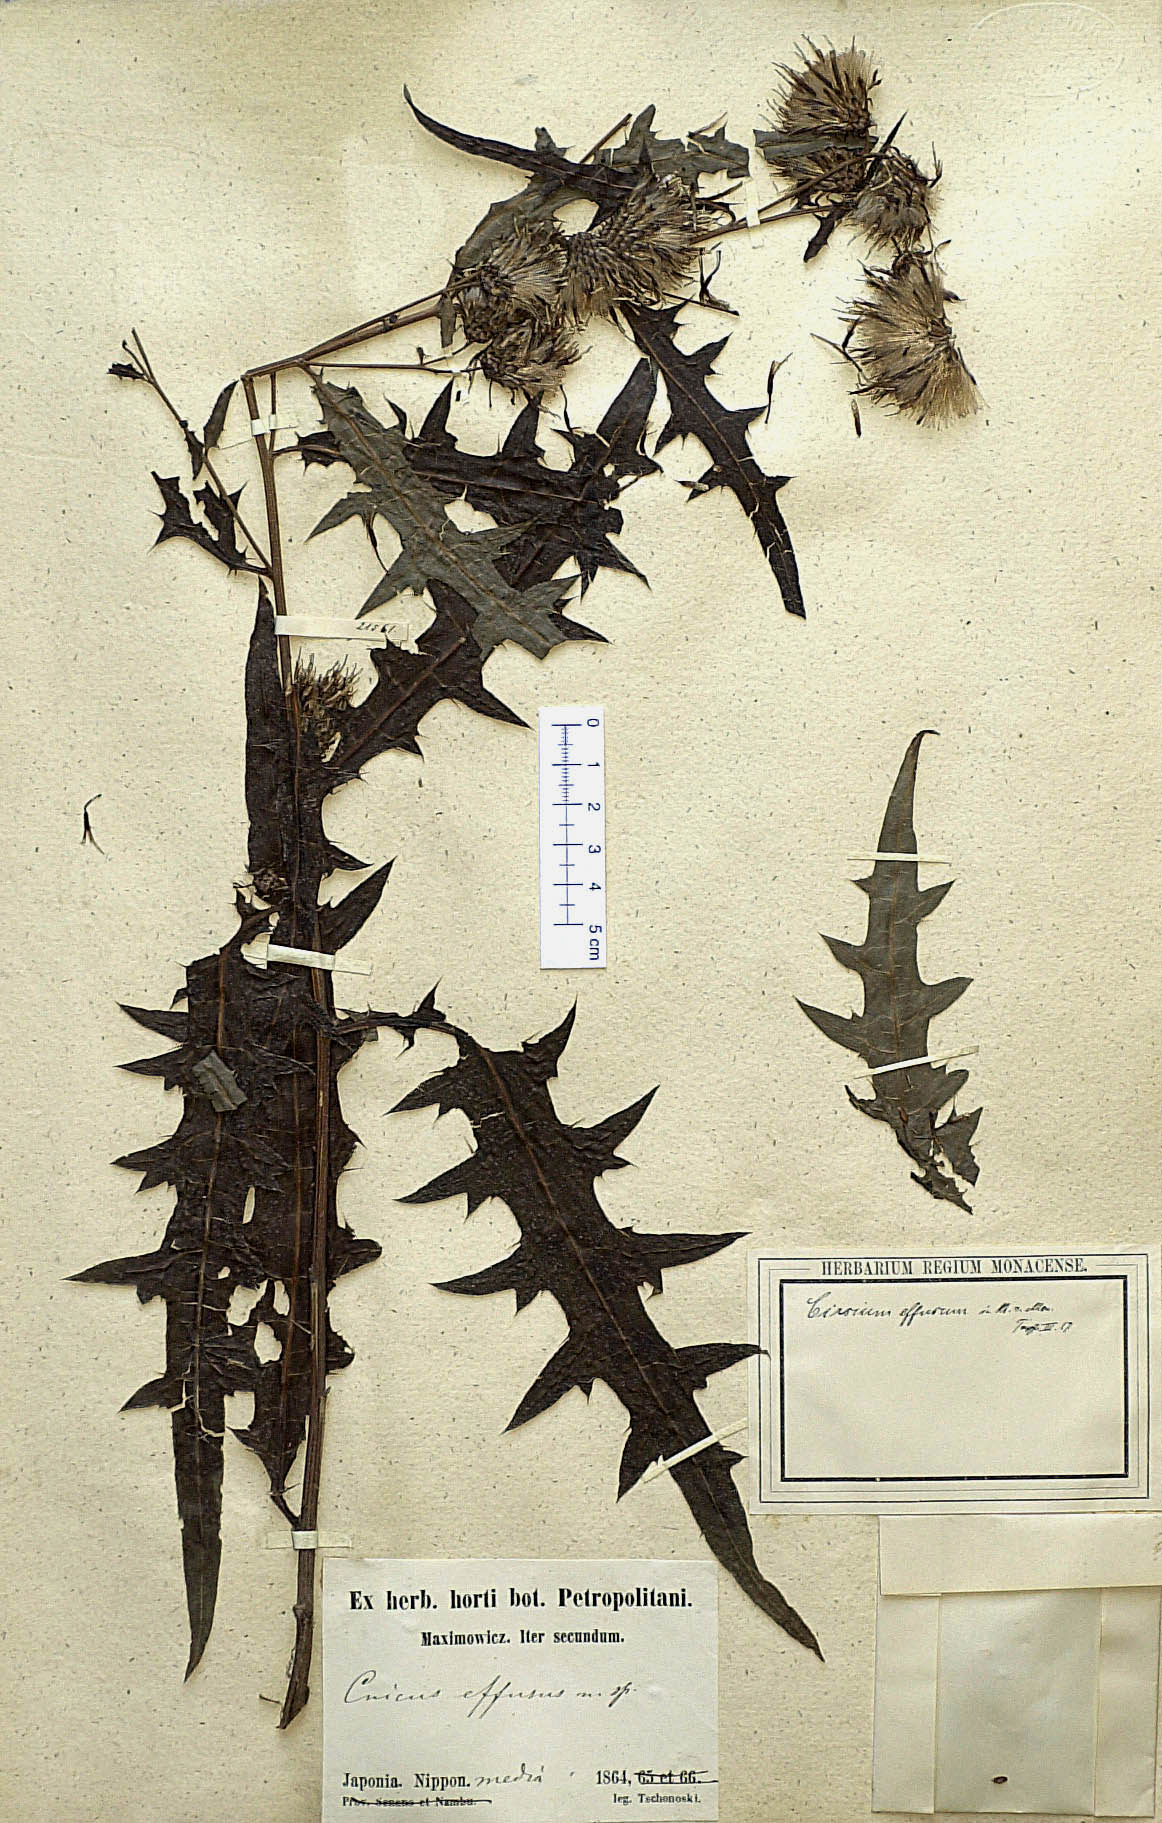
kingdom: Plantae
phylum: Tracheophyta
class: Magnoliopsida
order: Asterales
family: Asteraceae
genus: Cirsium
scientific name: Cirsium pulchellum
